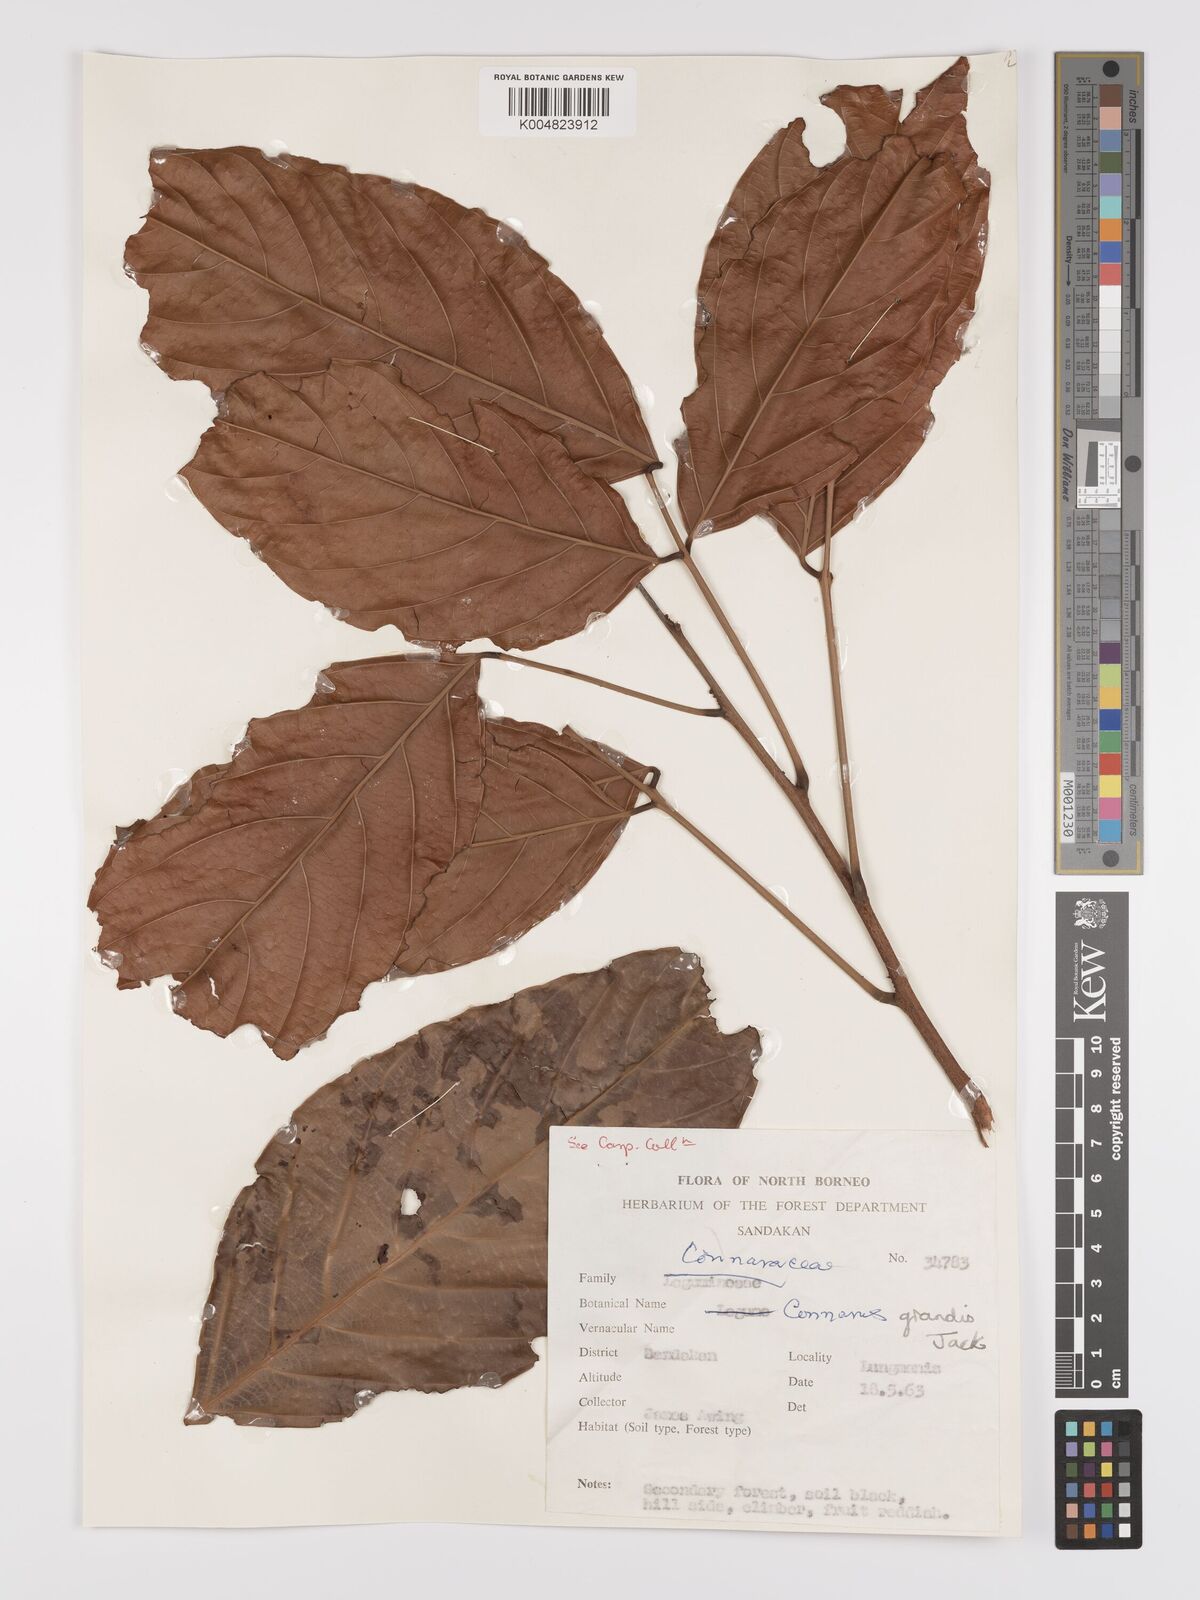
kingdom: Plantae
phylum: Tracheophyta
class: Magnoliopsida
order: Oxalidales
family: Connaraceae
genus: Connarus
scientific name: Connarus grandis
